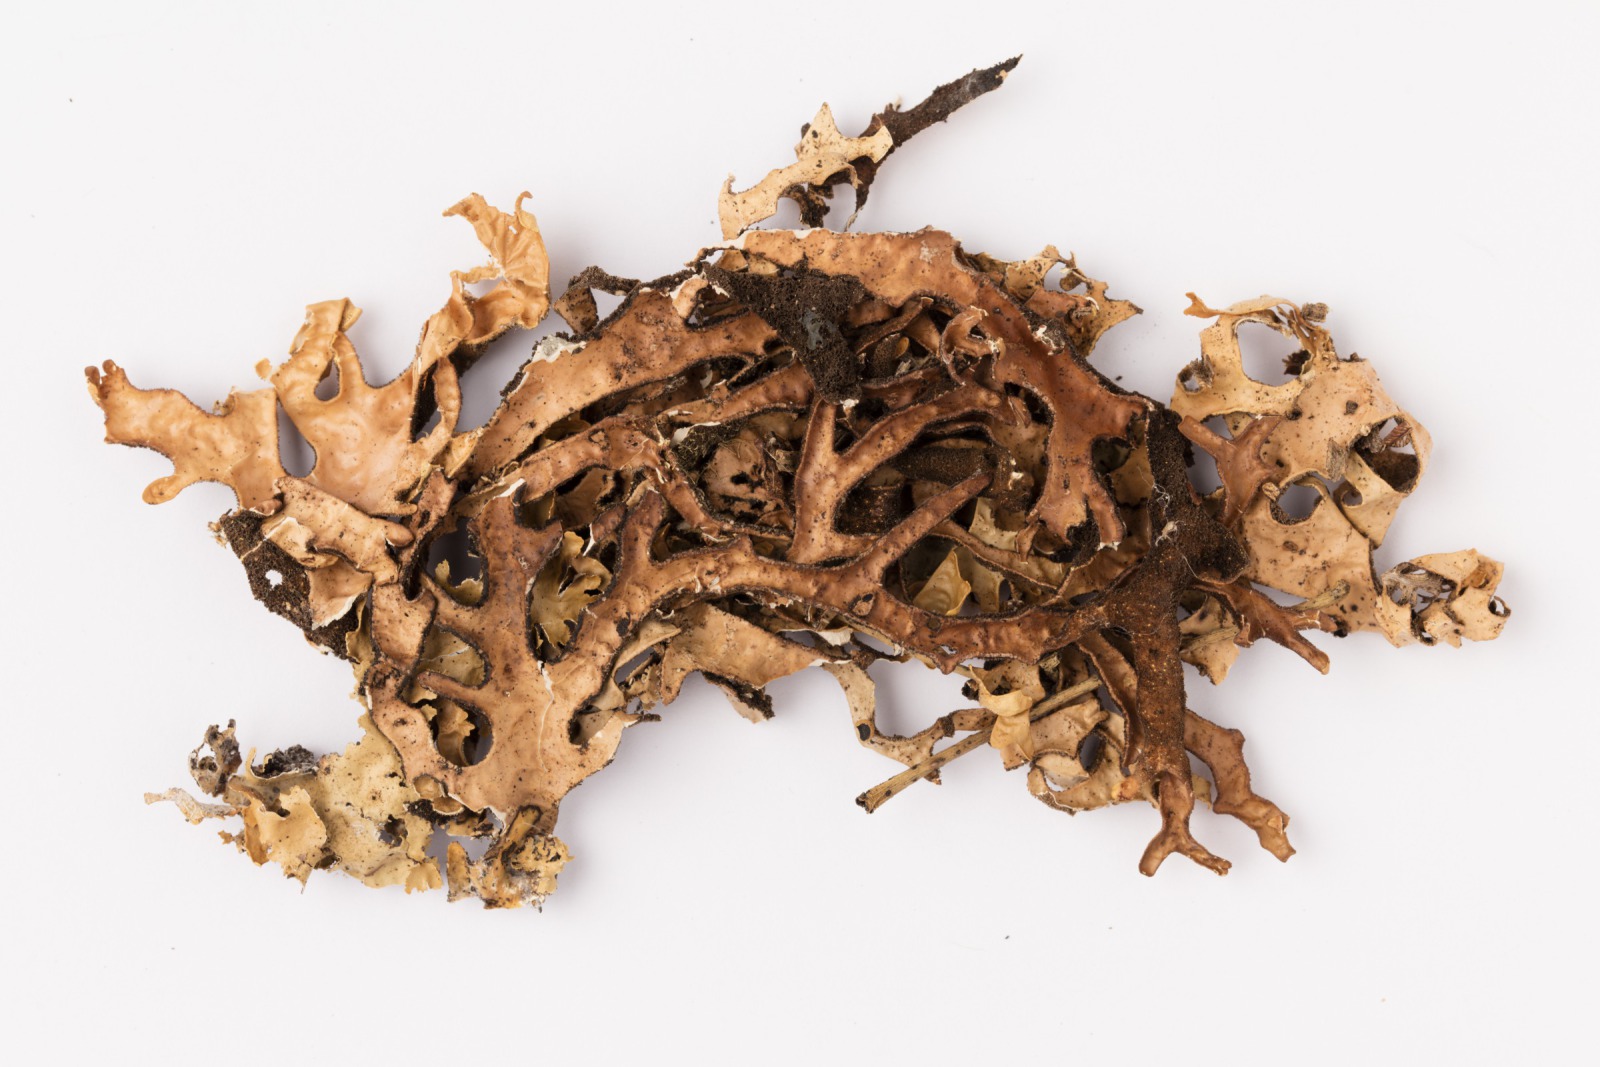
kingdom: Fungi
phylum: Ascomycota
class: Lecanoromycetes
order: Peltigerales
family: Lobariaceae
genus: Pseudocyphellaria
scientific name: Pseudocyphellaria carpoloma
